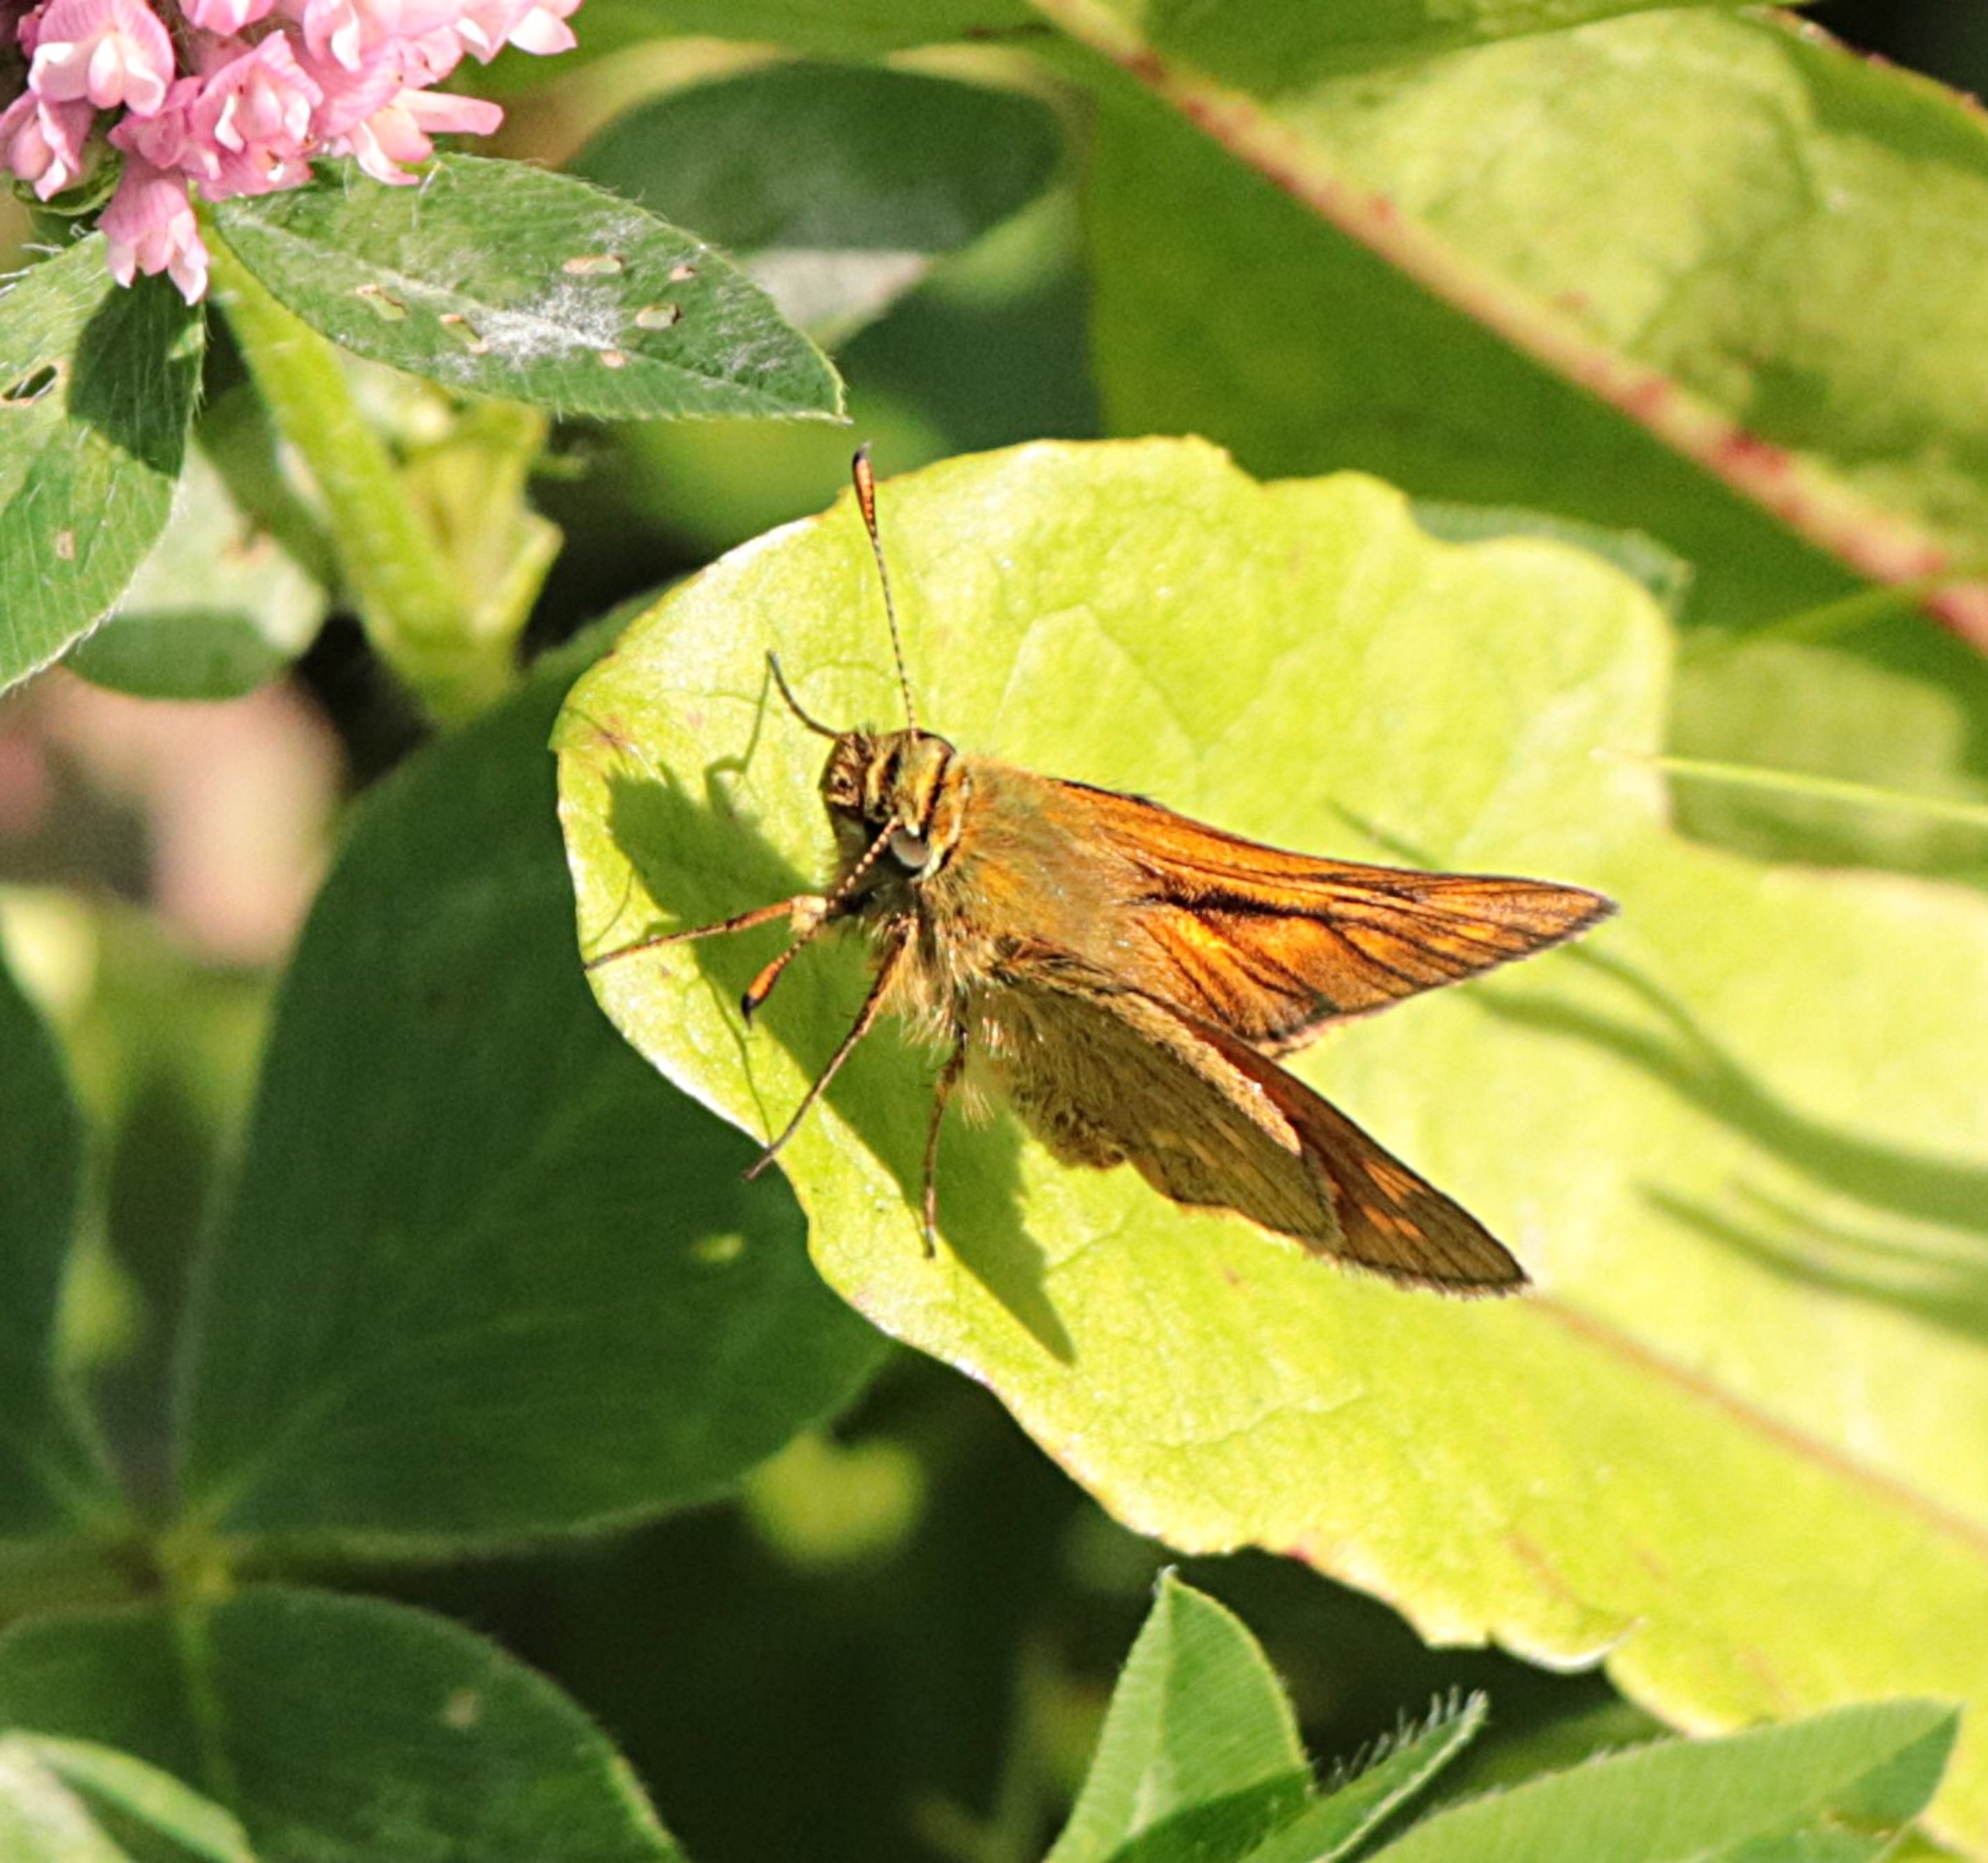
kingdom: Animalia
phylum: Arthropoda
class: Insecta
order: Lepidoptera
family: Hesperiidae
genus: Ochlodes
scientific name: Ochlodes venata
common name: Stor bredpande
